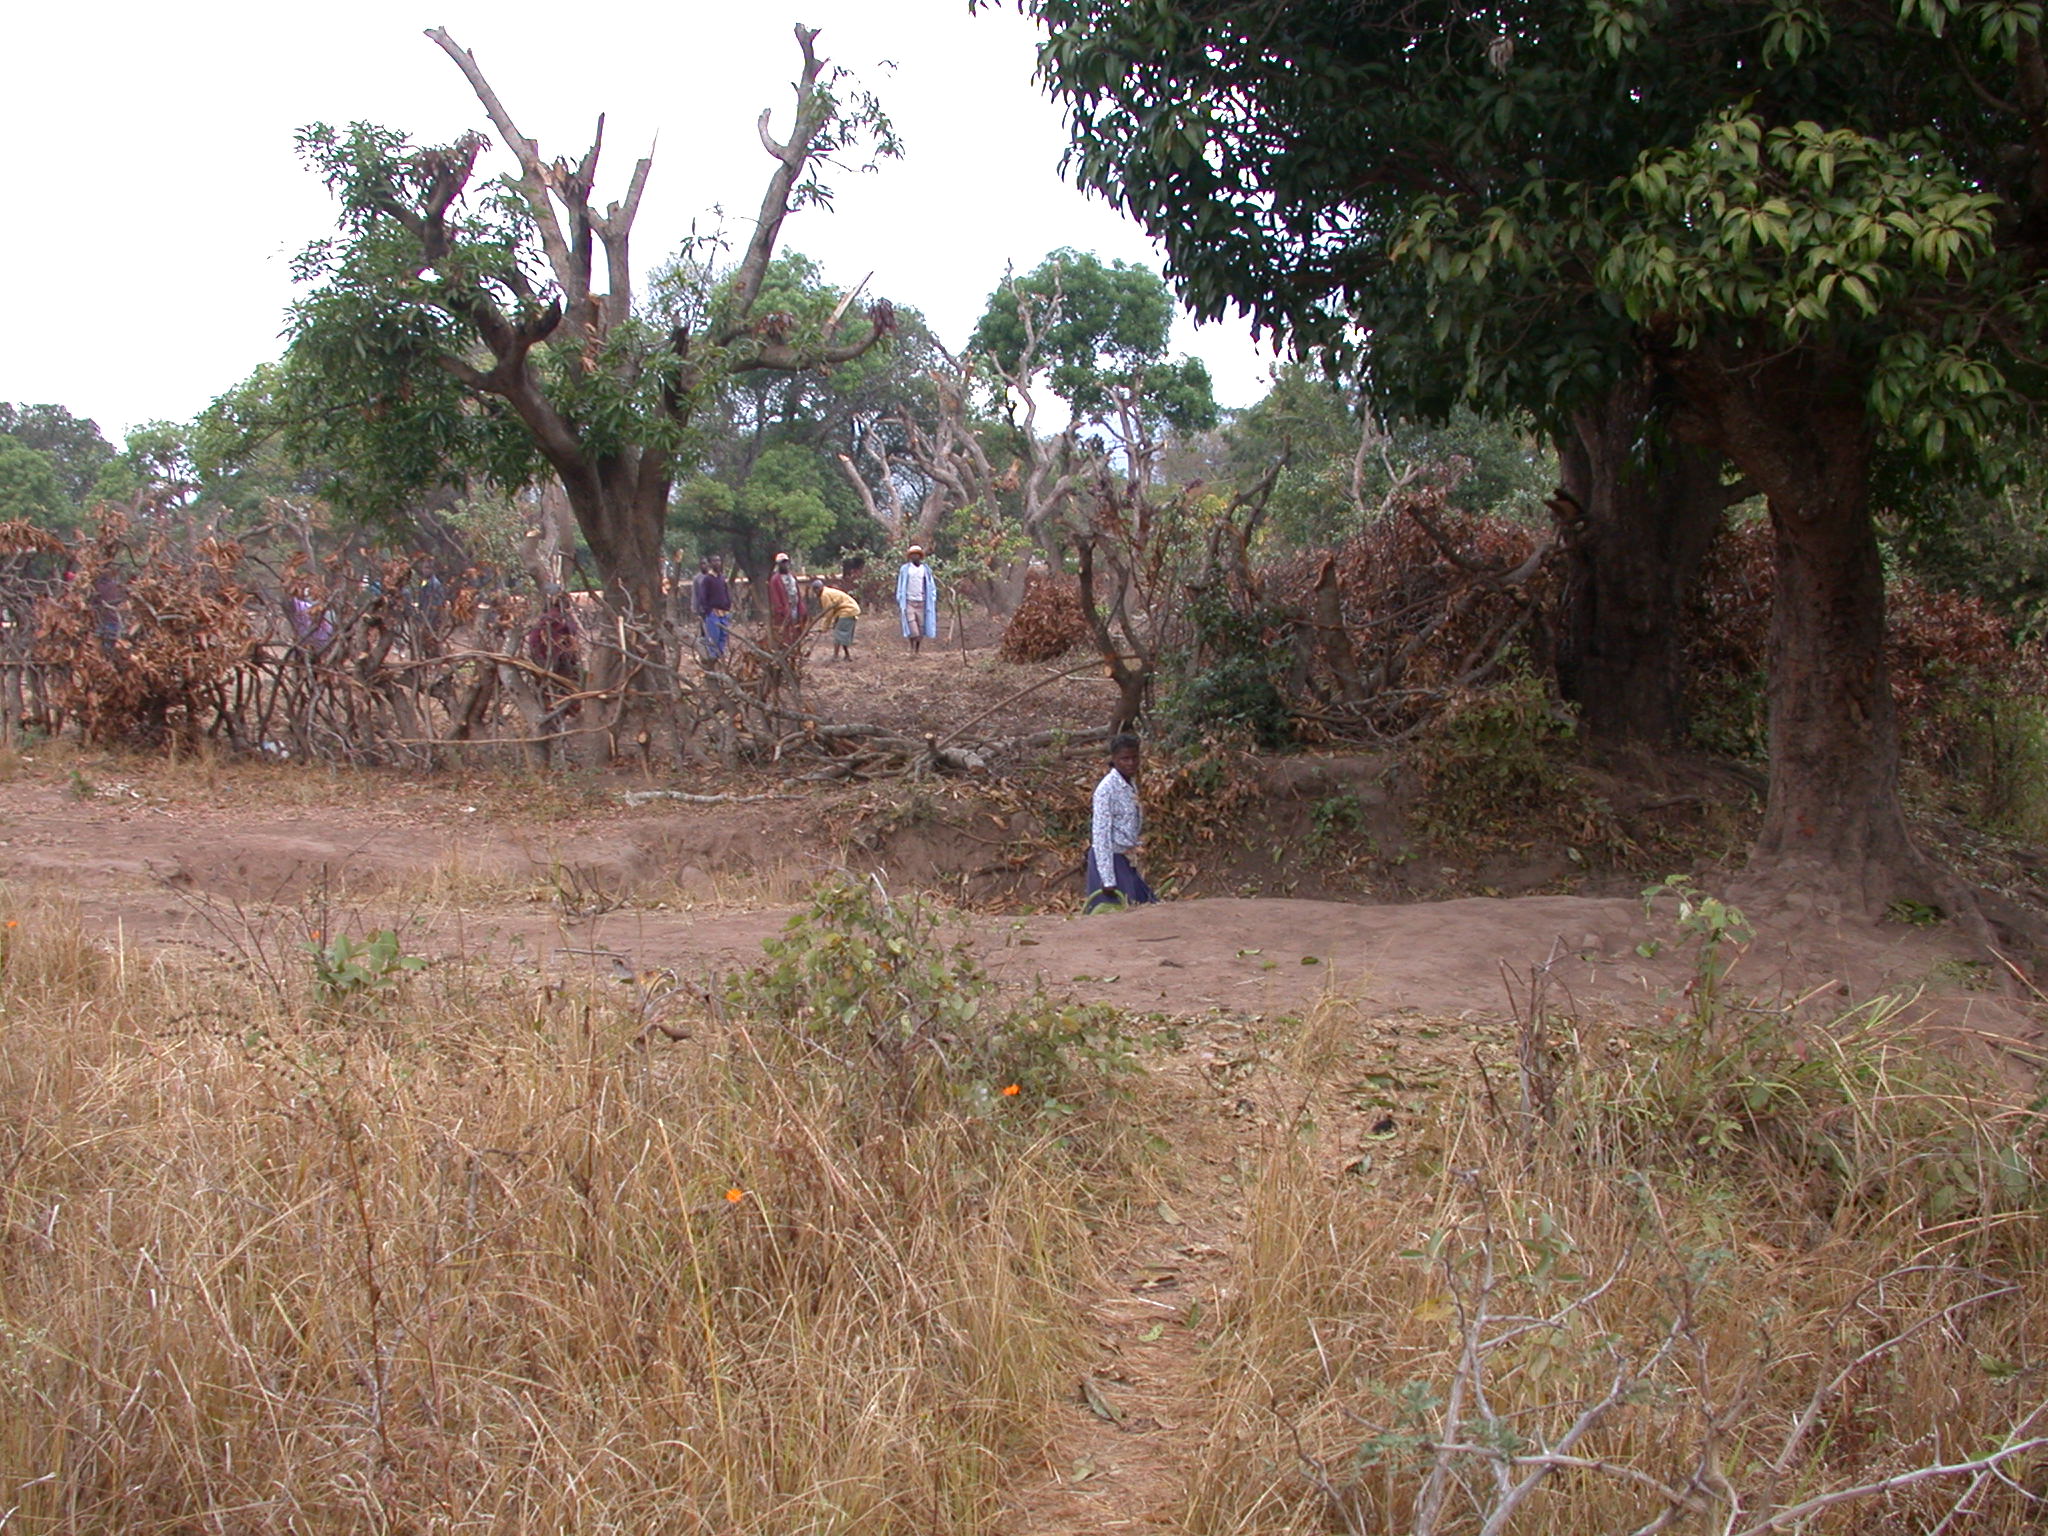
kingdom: Animalia
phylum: Chordata
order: Siluriformes
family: Clariidae
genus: Clarias
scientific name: Clarias gariepinus
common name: African catfish
